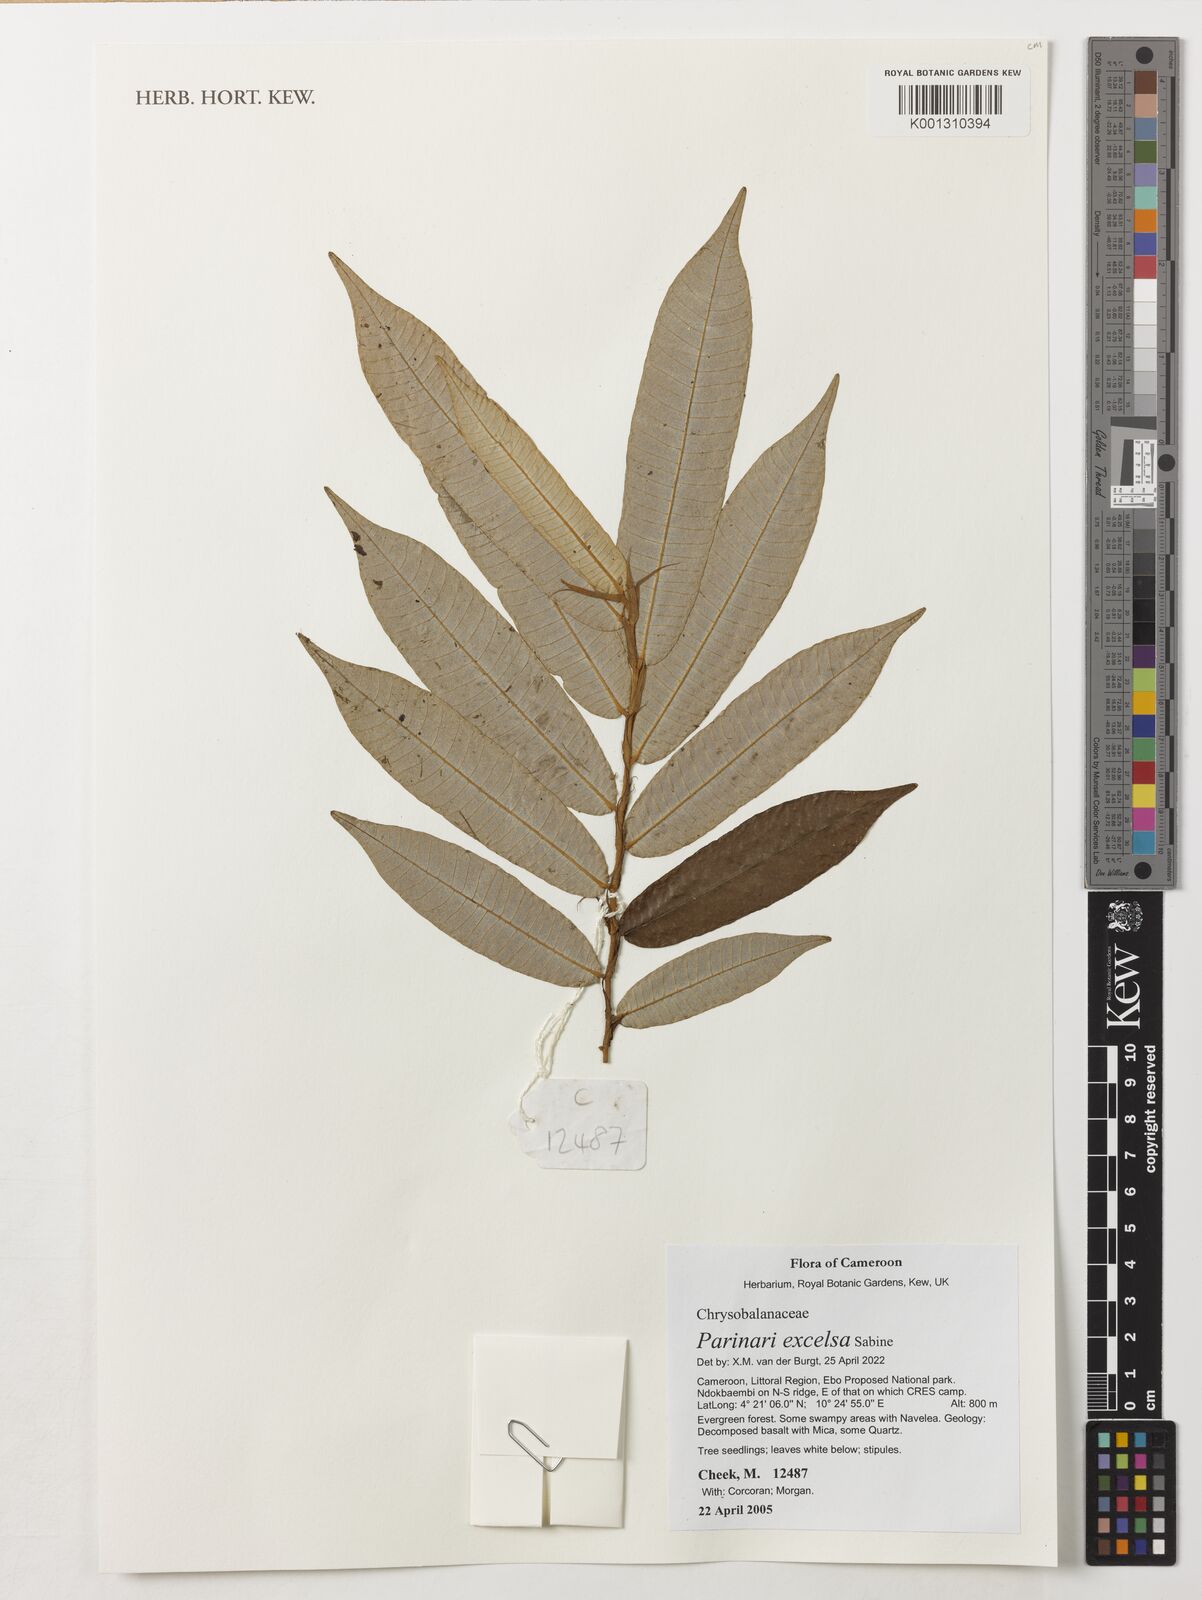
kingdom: Plantae
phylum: Tracheophyta
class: Magnoliopsida
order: Malpighiales
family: Chrysobalanaceae
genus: Parinari
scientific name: Parinari excelsa
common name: Guinea-plum
